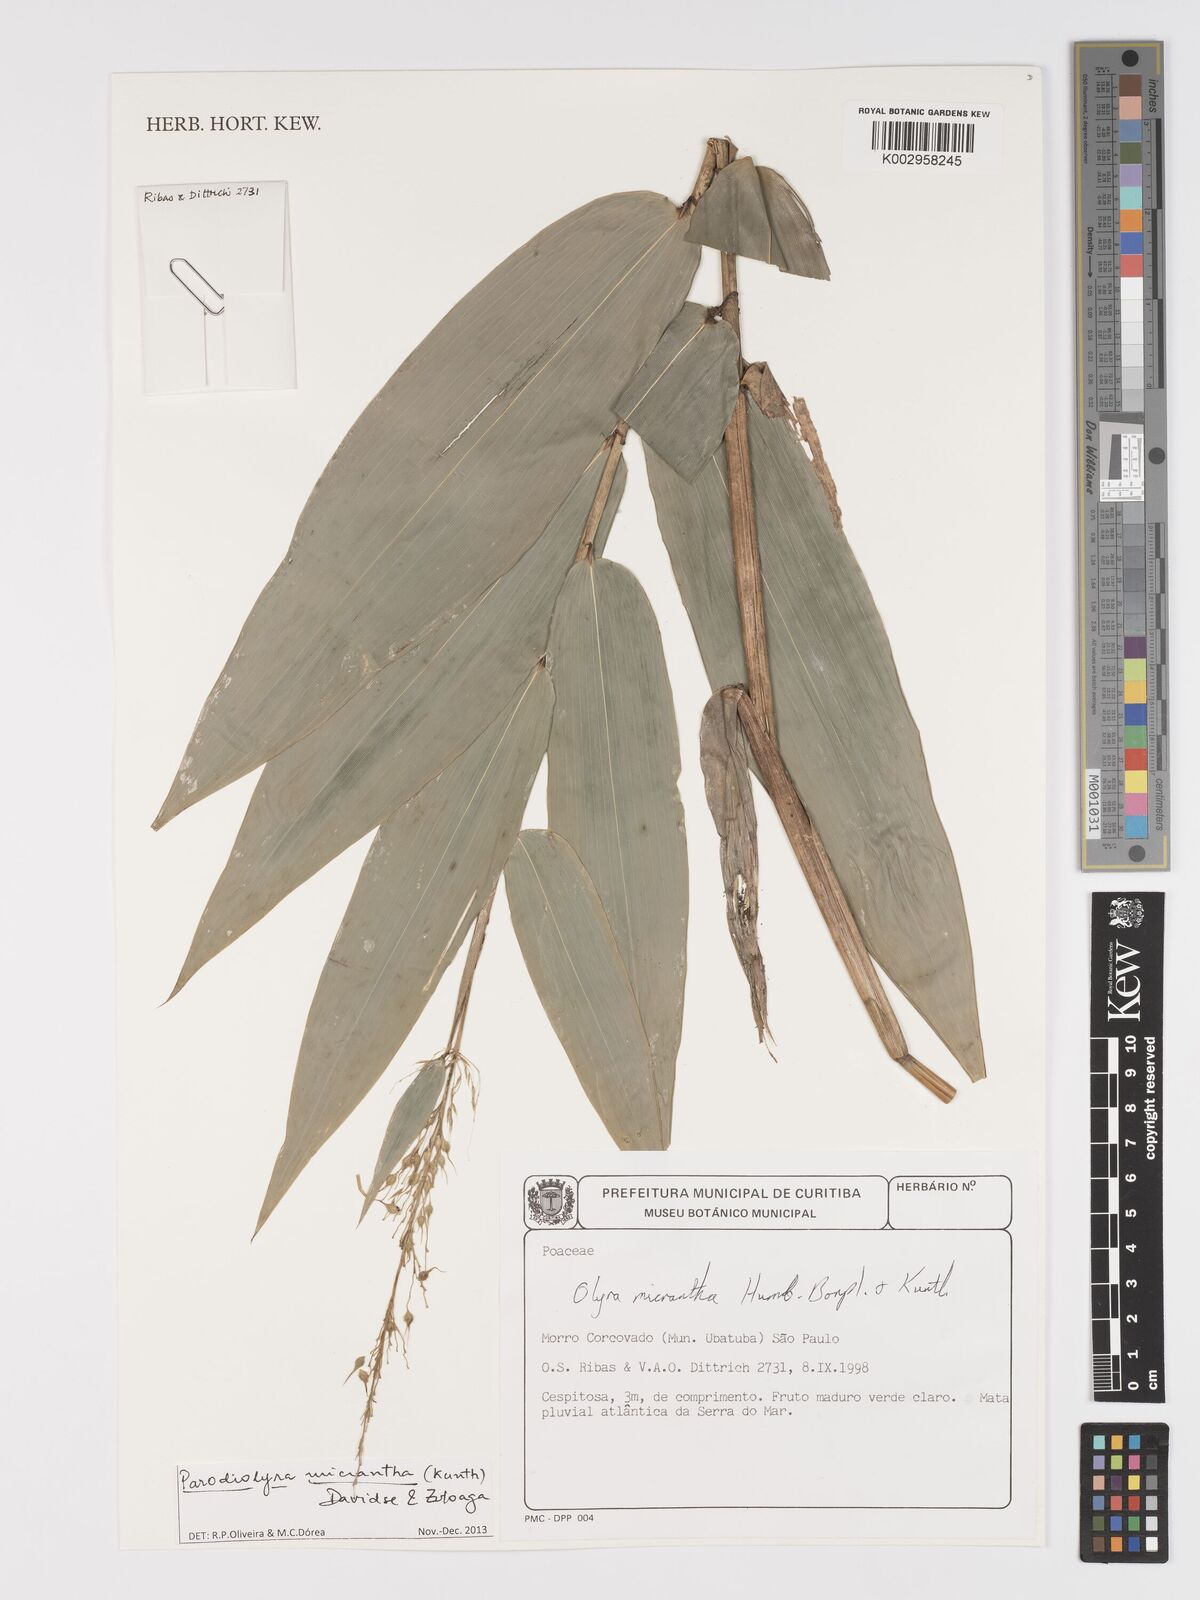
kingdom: Plantae
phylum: Tracheophyta
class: Liliopsida
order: Poales
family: Poaceae
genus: Parodiolyra
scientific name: Parodiolyra
